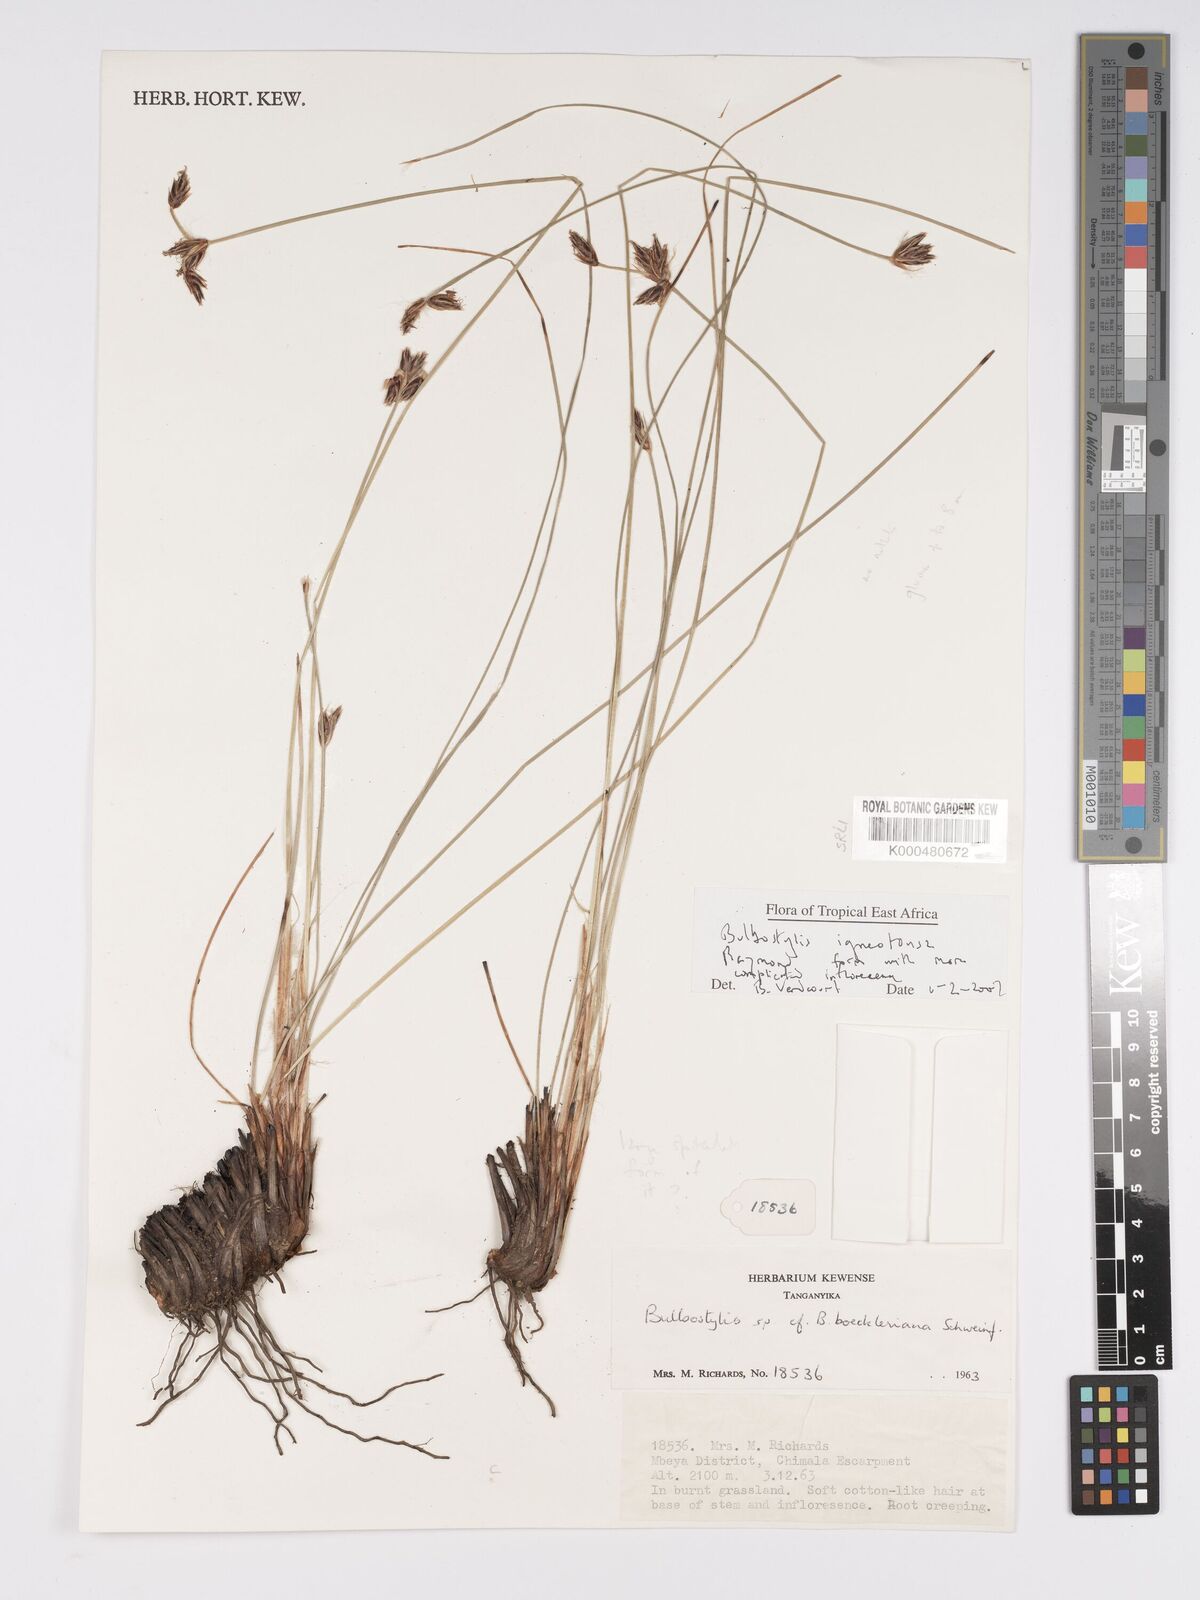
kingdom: Plantae
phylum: Tracheophyta
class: Liliopsida
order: Poales
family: Cyperaceae
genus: Bulbostylis
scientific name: Bulbostylis igneotonsa
